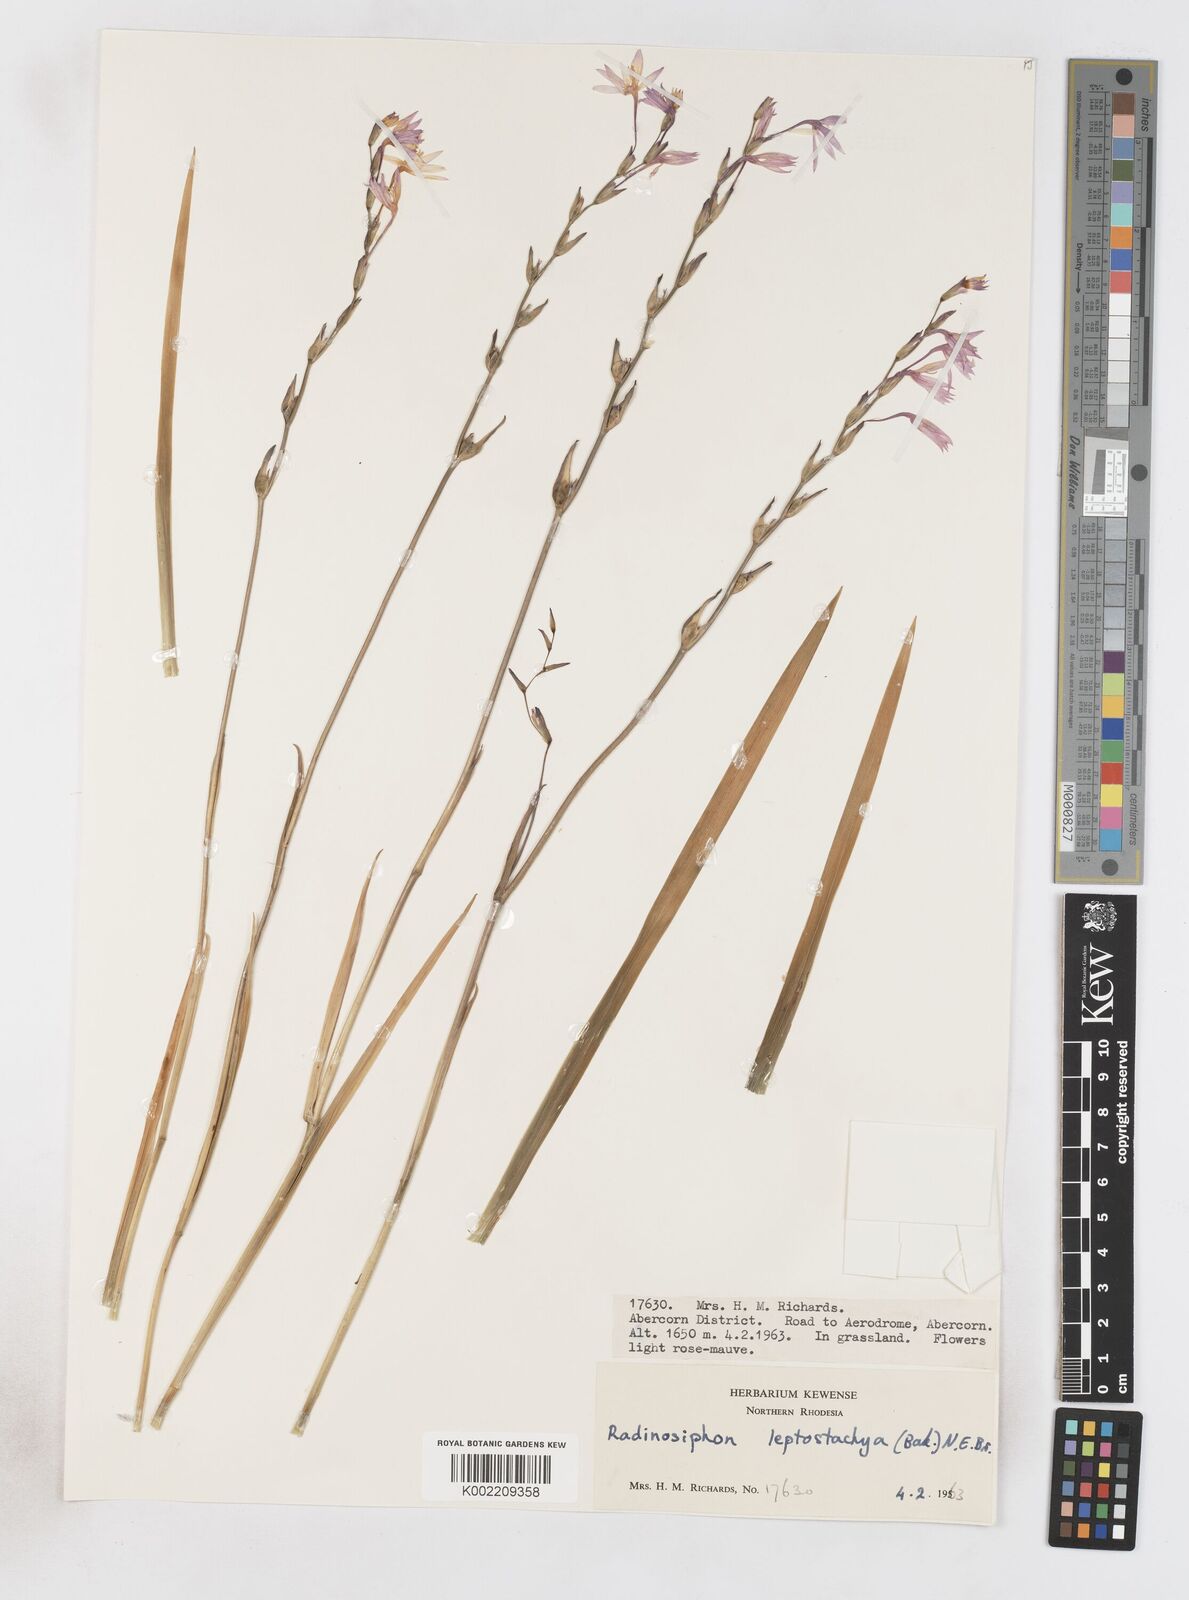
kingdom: Plantae
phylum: Tracheophyta
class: Liliopsida
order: Asparagales
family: Iridaceae
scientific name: Iridaceae
